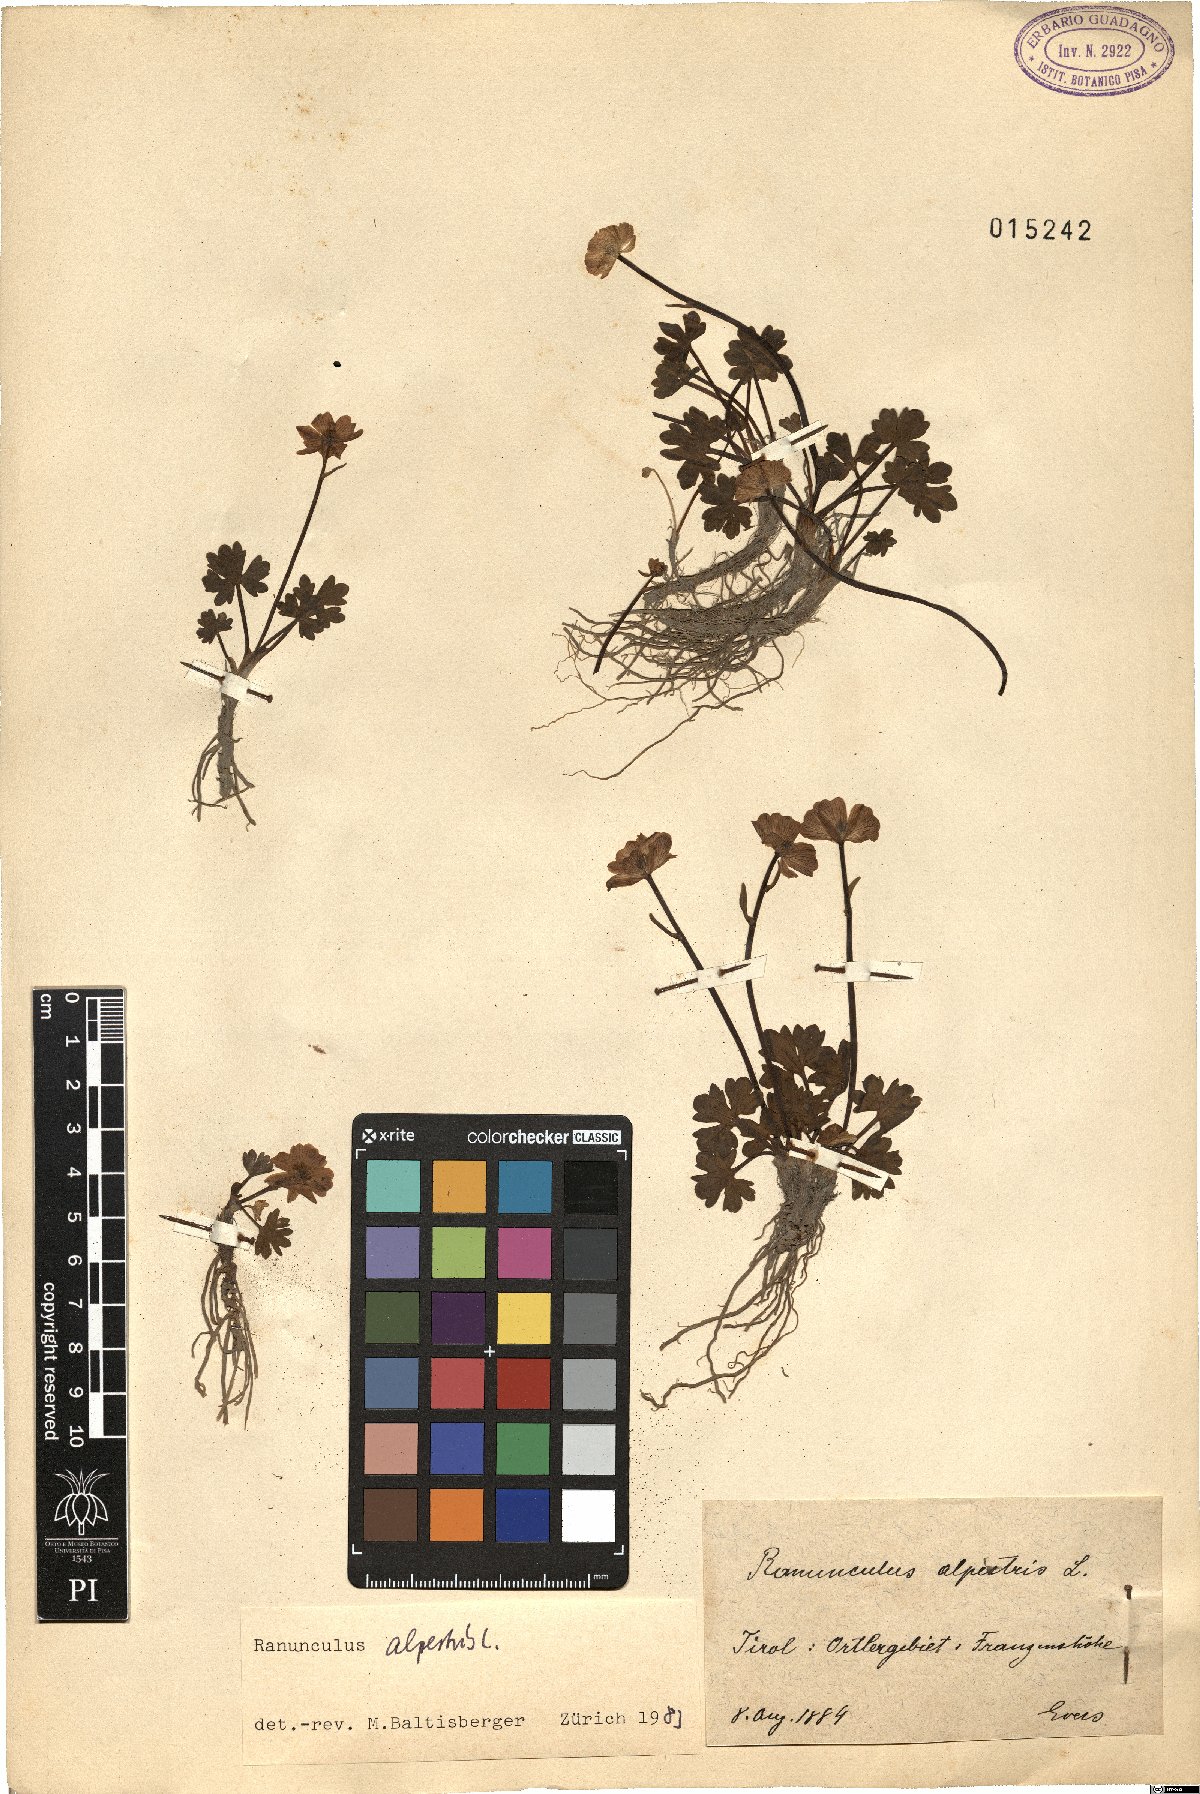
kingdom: Plantae
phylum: Tracheophyta
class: Magnoliopsida
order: Ranunculales
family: Ranunculaceae
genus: Ranunculus
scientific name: Ranunculus alpestris
